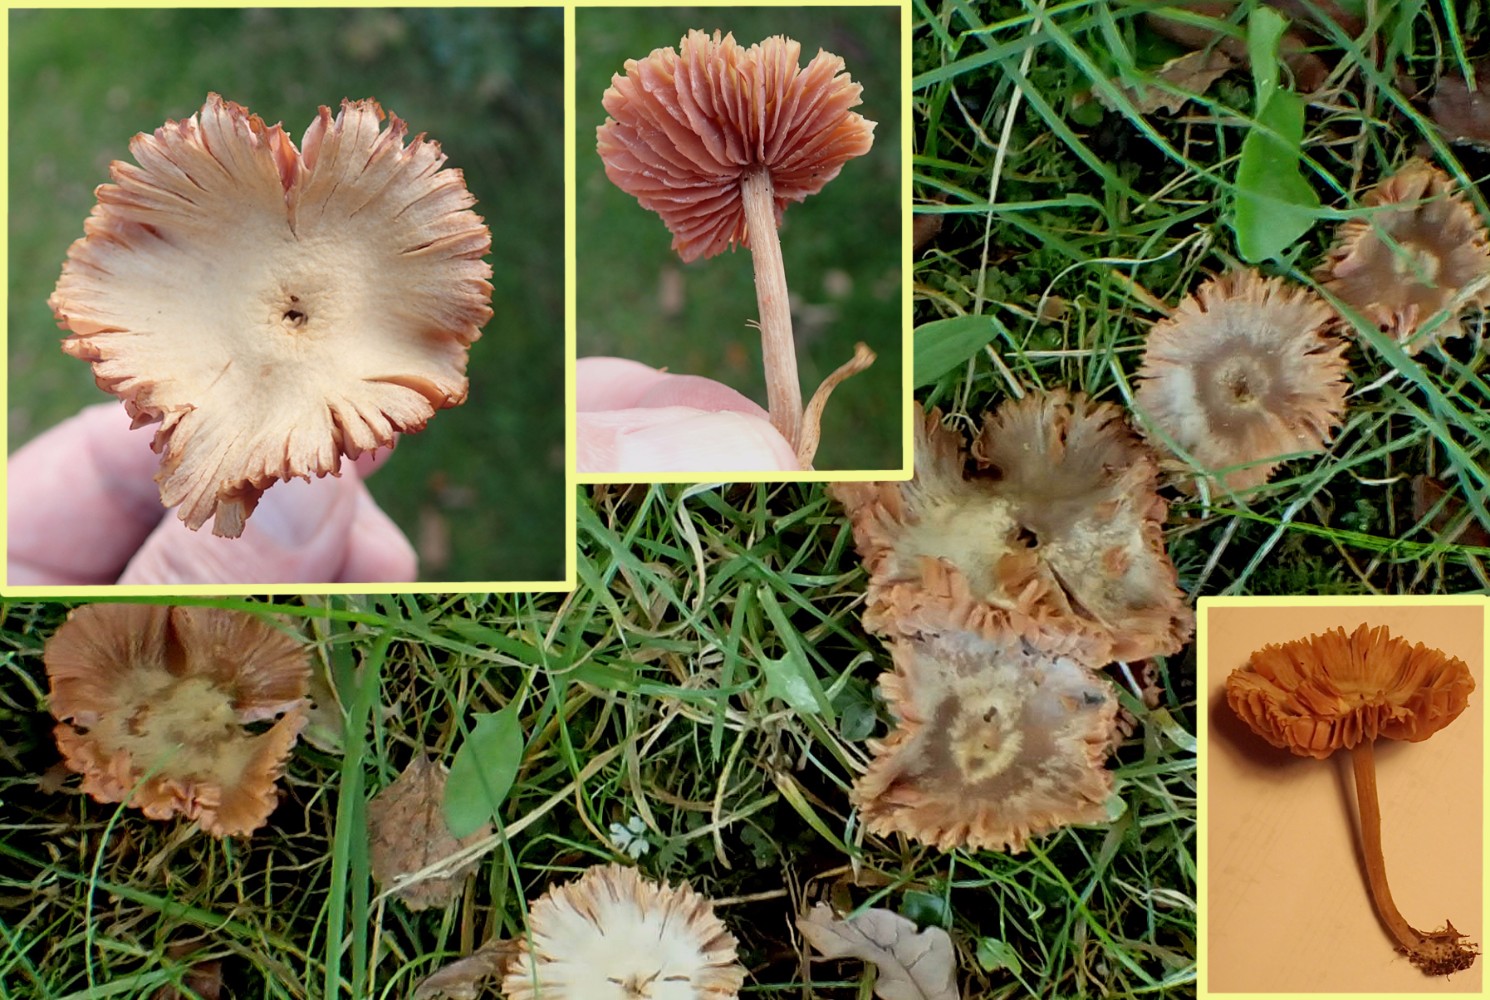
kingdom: Fungi
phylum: Basidiomycota
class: Agaricomycetes
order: Agaricales
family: Hydnangiaceae
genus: Laccaria
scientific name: Laccaria proxima
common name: stor ametysthat
